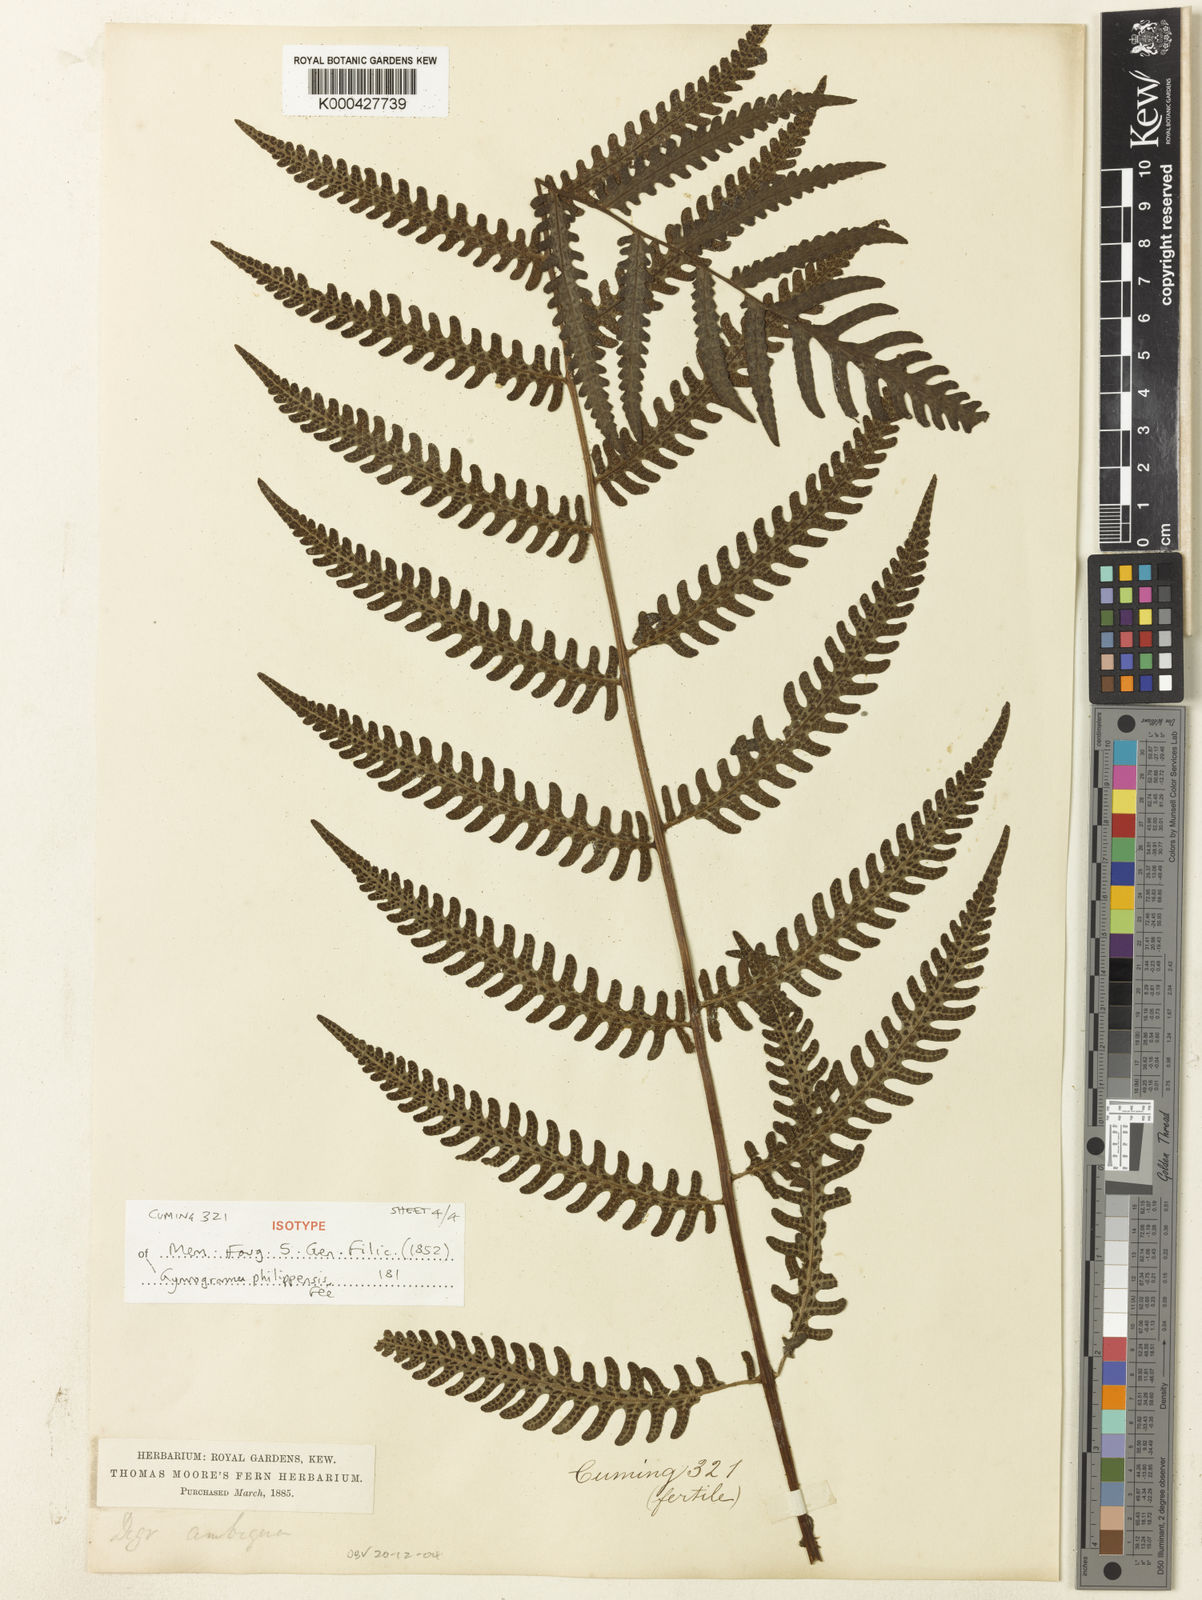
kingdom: Plantae
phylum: Tracheophyta
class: Polypodiopsida
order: Polypodiales
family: Tectariaceae
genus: Tectaria
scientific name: Tectaria aspidioides
